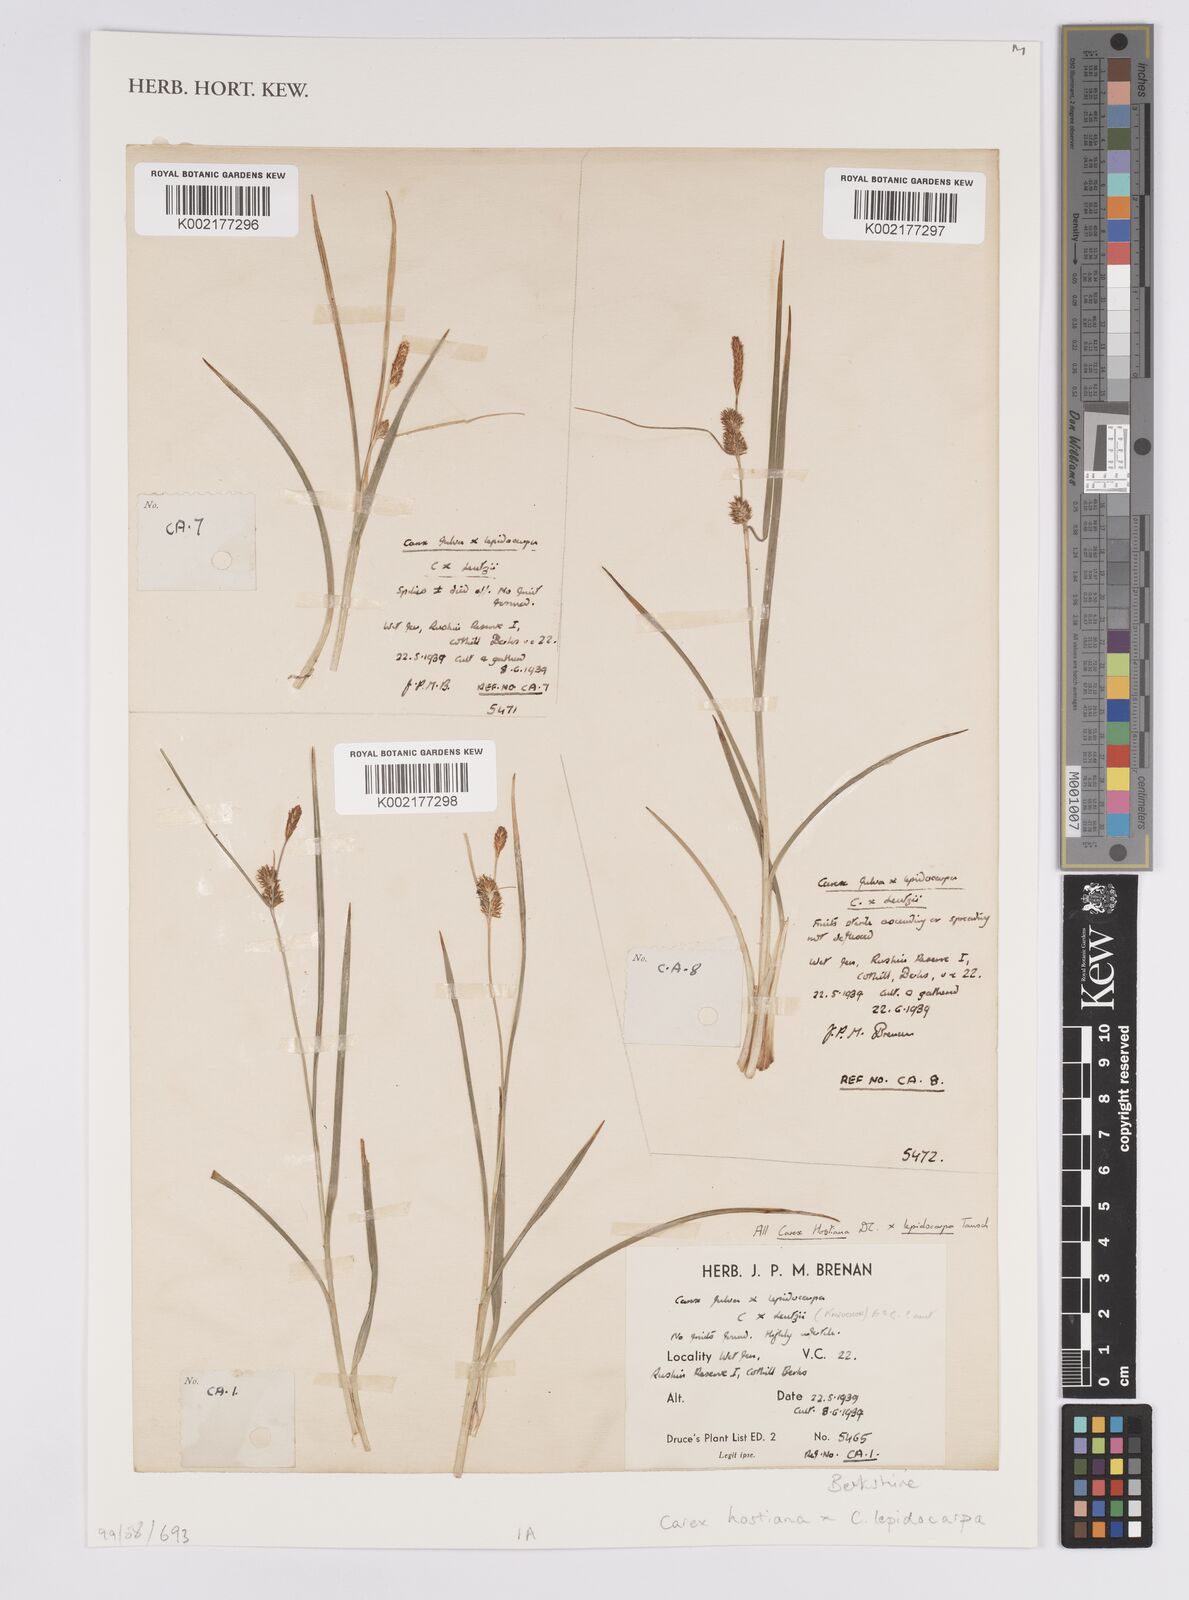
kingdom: Plantae
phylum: Tracheophyta
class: Liliopsida
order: Poales
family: Cyperaceae
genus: Carex
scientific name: Carex hostiana
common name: Tawny sedge
